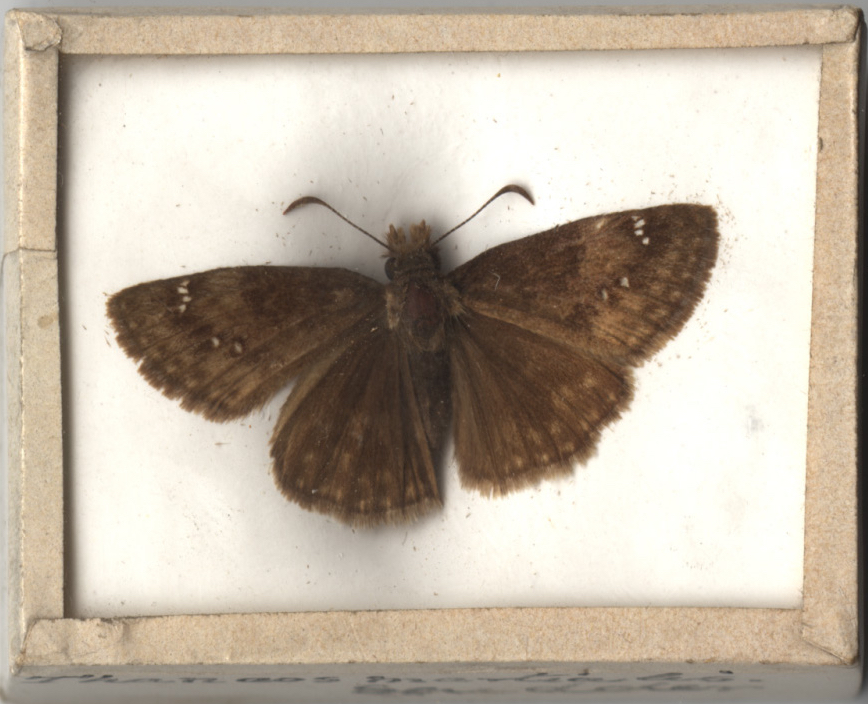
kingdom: Animalia
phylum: Arthropoda
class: Insecta
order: Lepidoptera
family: Hesperiidae
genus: Erynnis
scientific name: Erynnis horatius
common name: Horace's Duskywing
